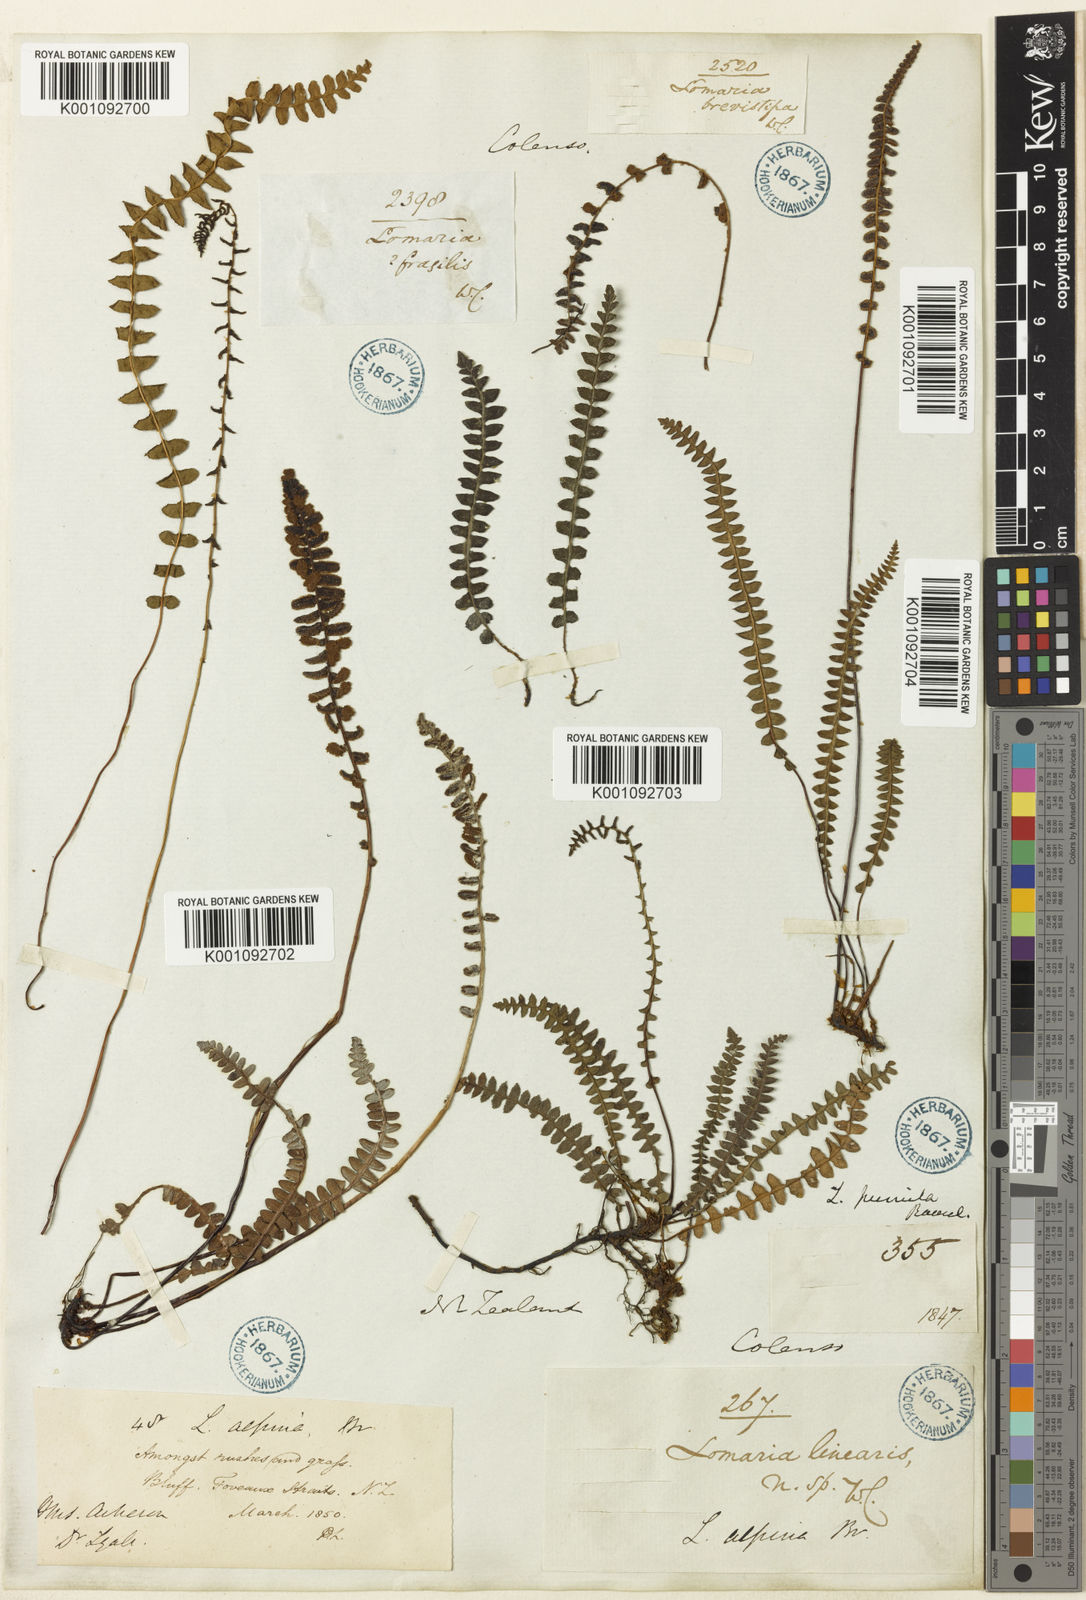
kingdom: Plantae
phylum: Tracheophyta
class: Polypodiopsida
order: Polypodiales
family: Blechnaceae
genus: Austroblechnum
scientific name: Austroblechnum penna-marina
